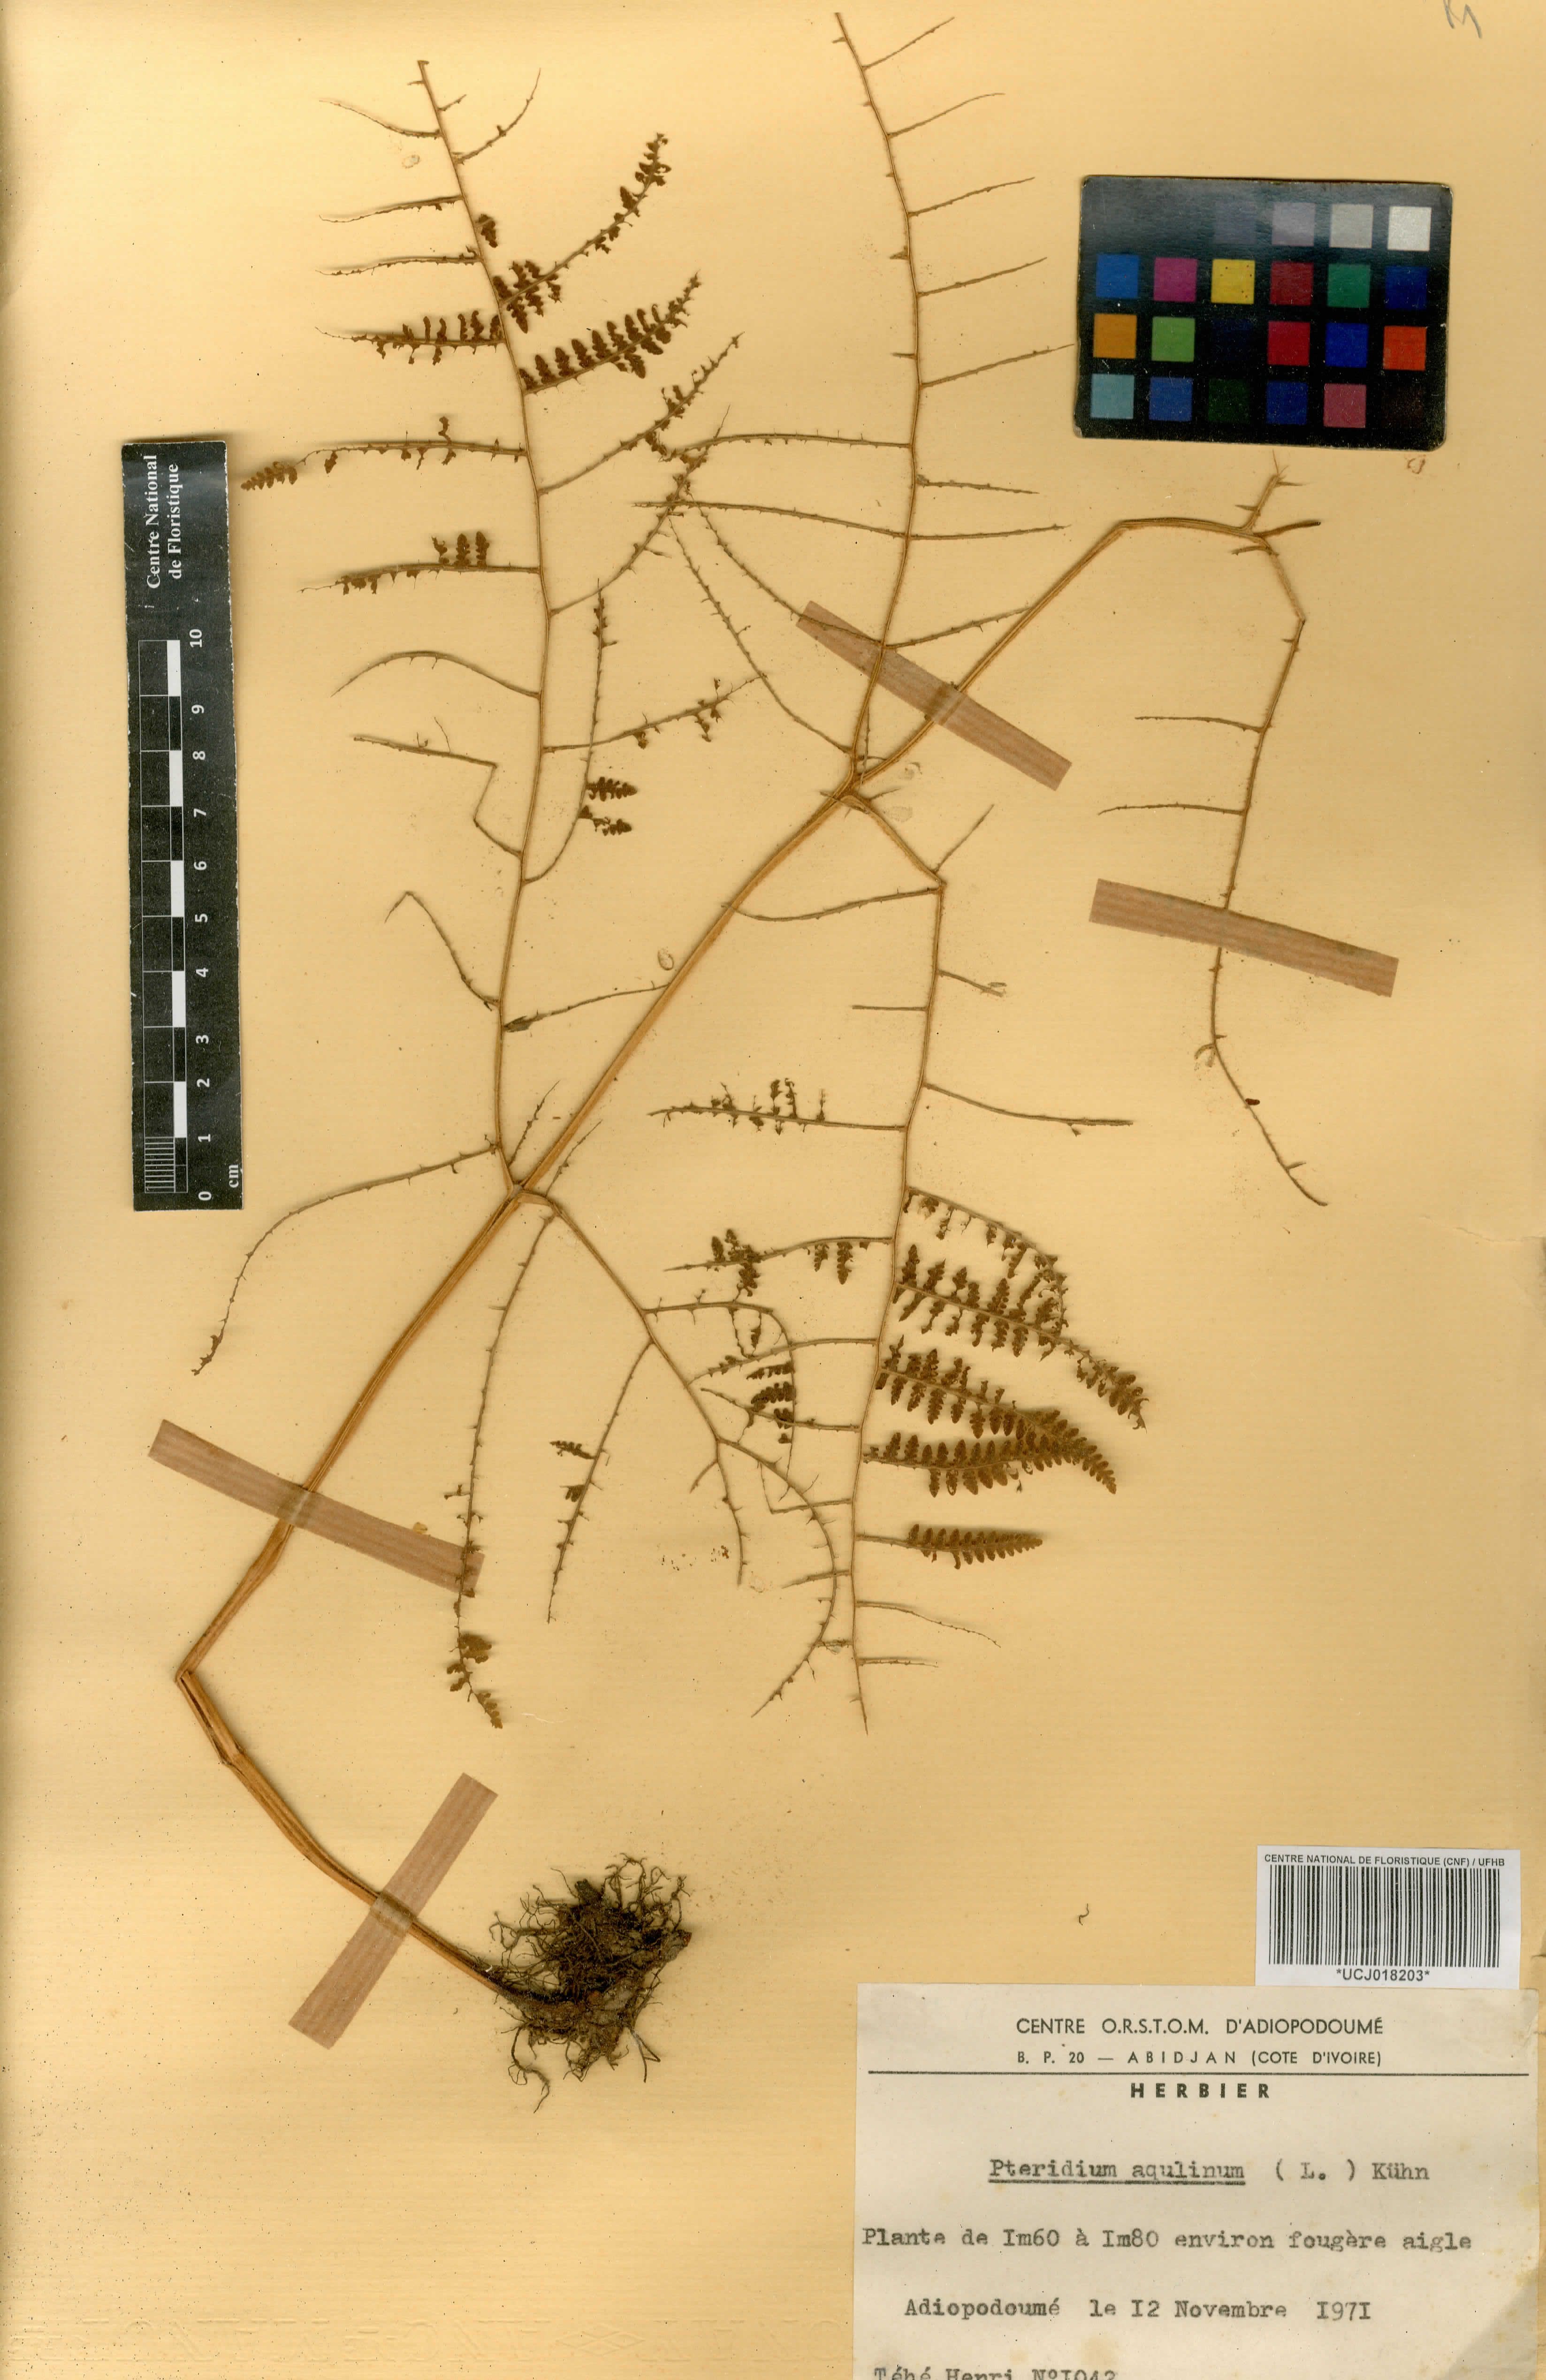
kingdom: Plantae
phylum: Tracheophyta
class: Polypodiopsida
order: Polypodiales
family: Dennstaedtiaceae
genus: Pteridium
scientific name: Pteridium aquilinum
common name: Bracken
